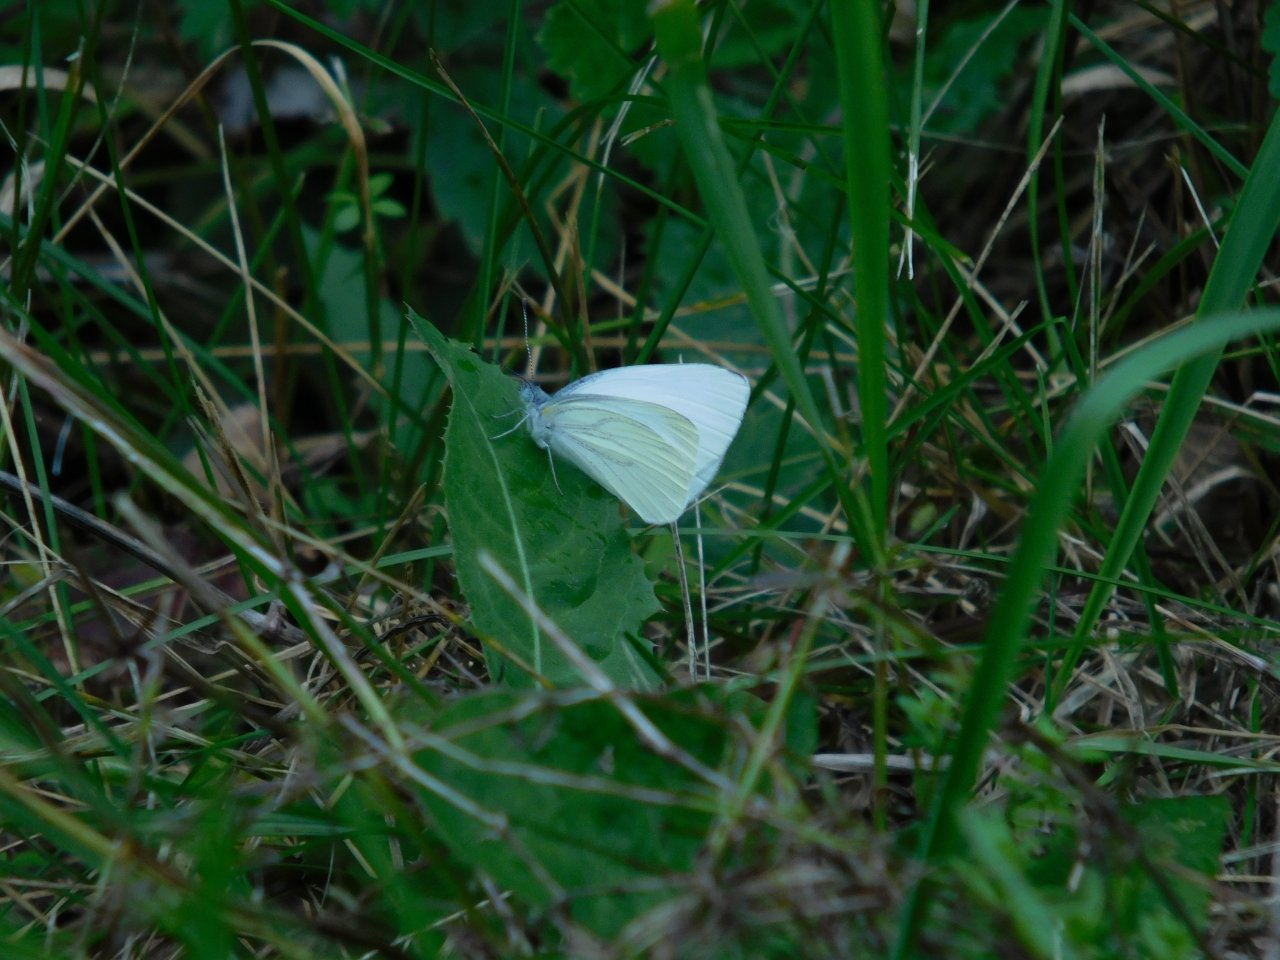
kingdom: Animalia
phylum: Arthropoda
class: Insecta
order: Lepidoptera
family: Pieridae
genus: Pieris
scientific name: Pieris oleracea
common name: Mustard White
